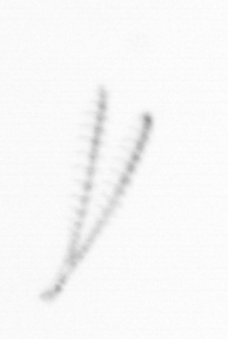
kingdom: Chromista
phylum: Ochrophyta
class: Bacillariophyceae
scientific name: Bacillariophyceae
